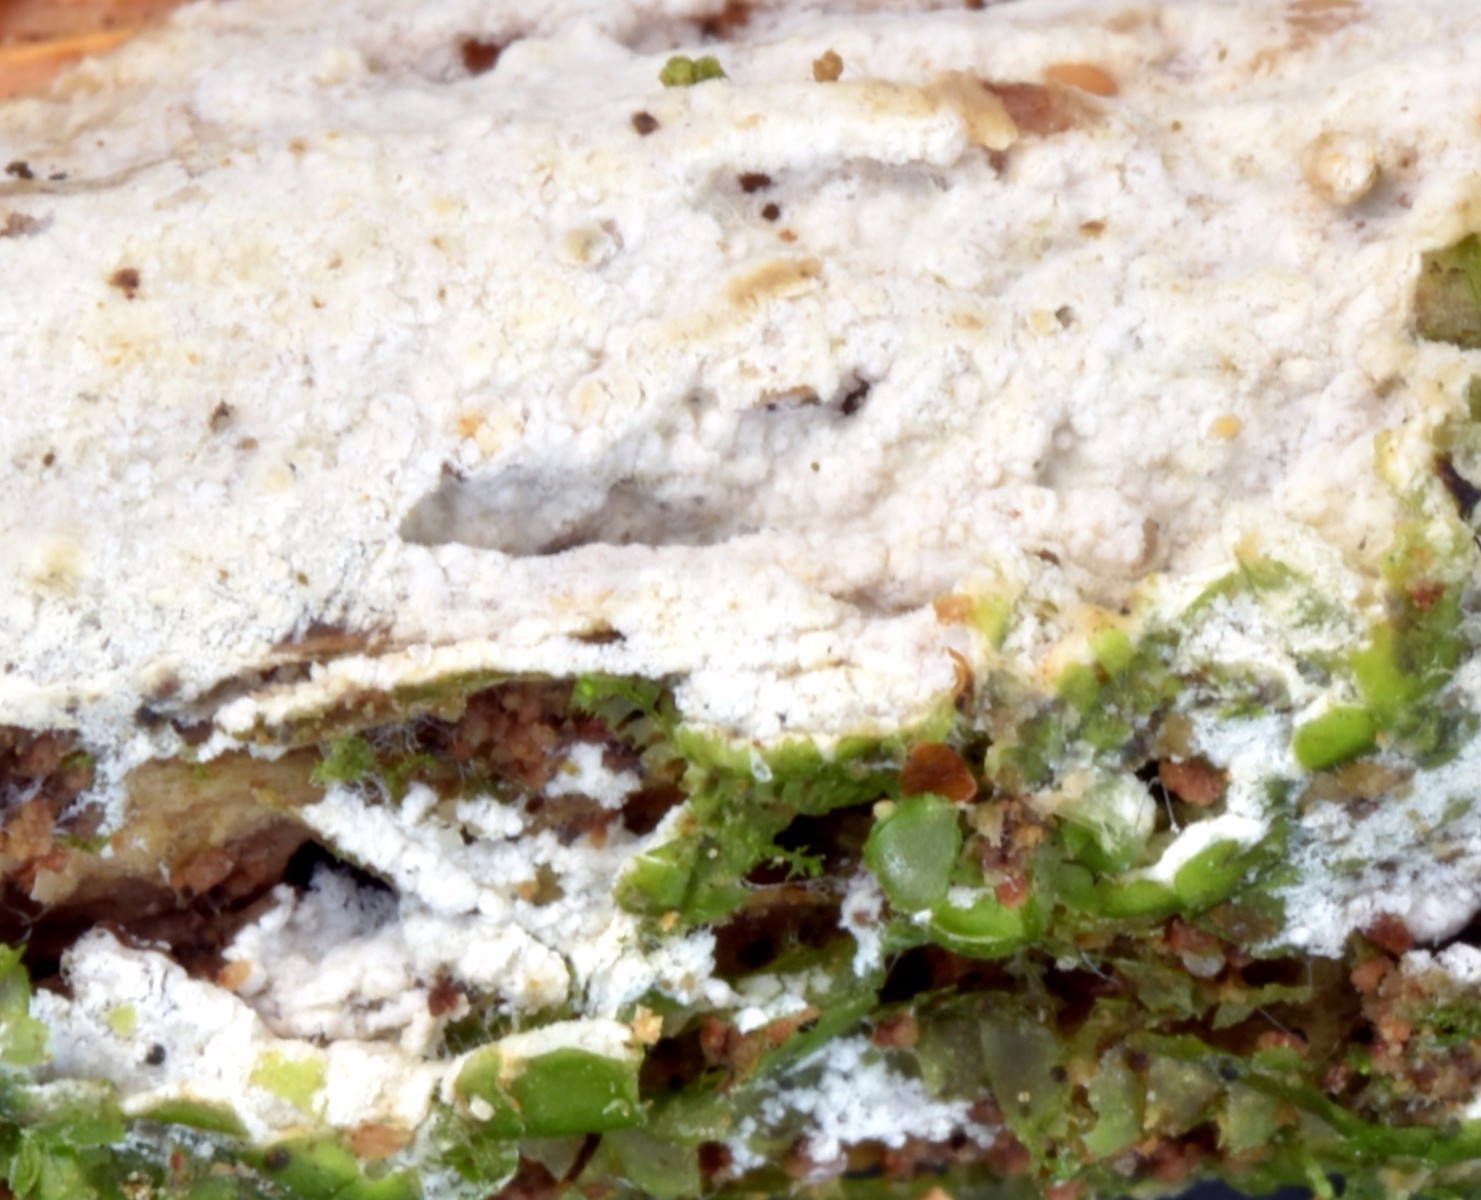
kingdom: Fungi
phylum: Basidiomycota
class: Agaricomycetes
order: Atheliales
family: Atheliaceae
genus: Tylospora
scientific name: Tylospora asterophora
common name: hjertesporet jordhinde
